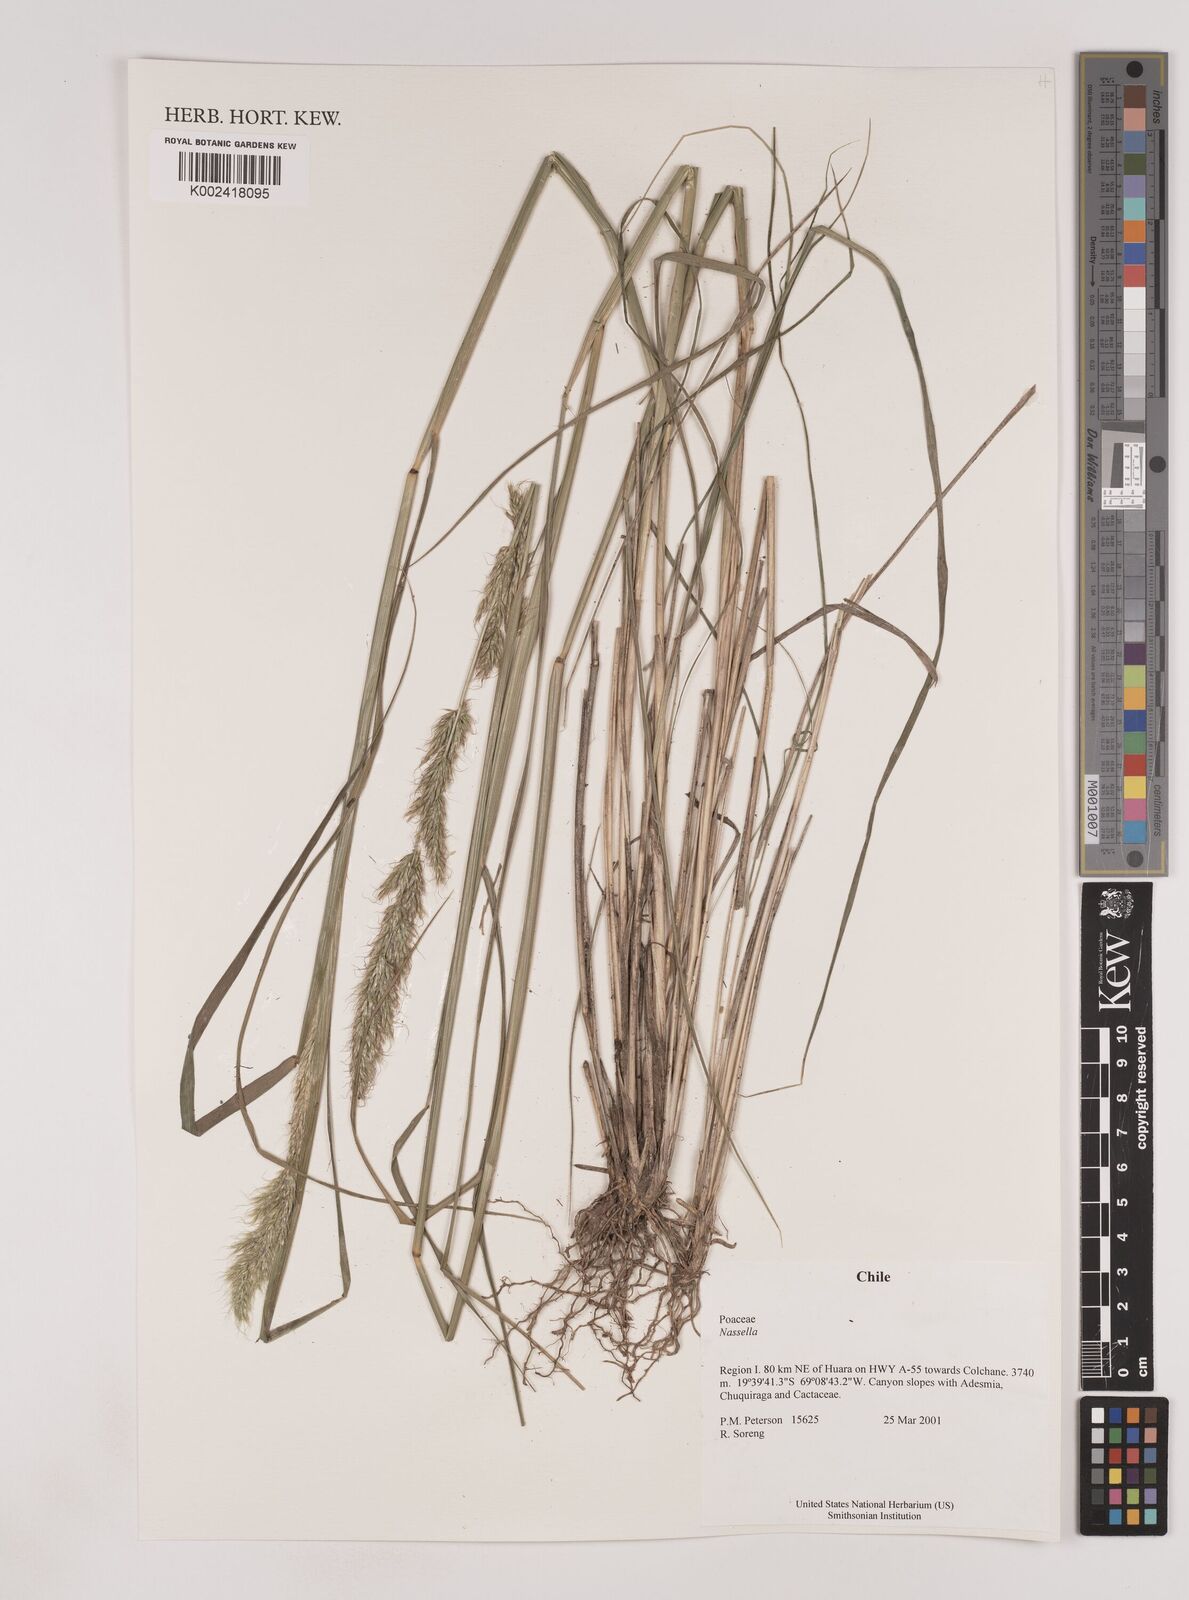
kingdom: Plantae
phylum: Tracheophyta
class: Liliopsida
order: Poales
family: Poaceae
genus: Nassella
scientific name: Nassella
